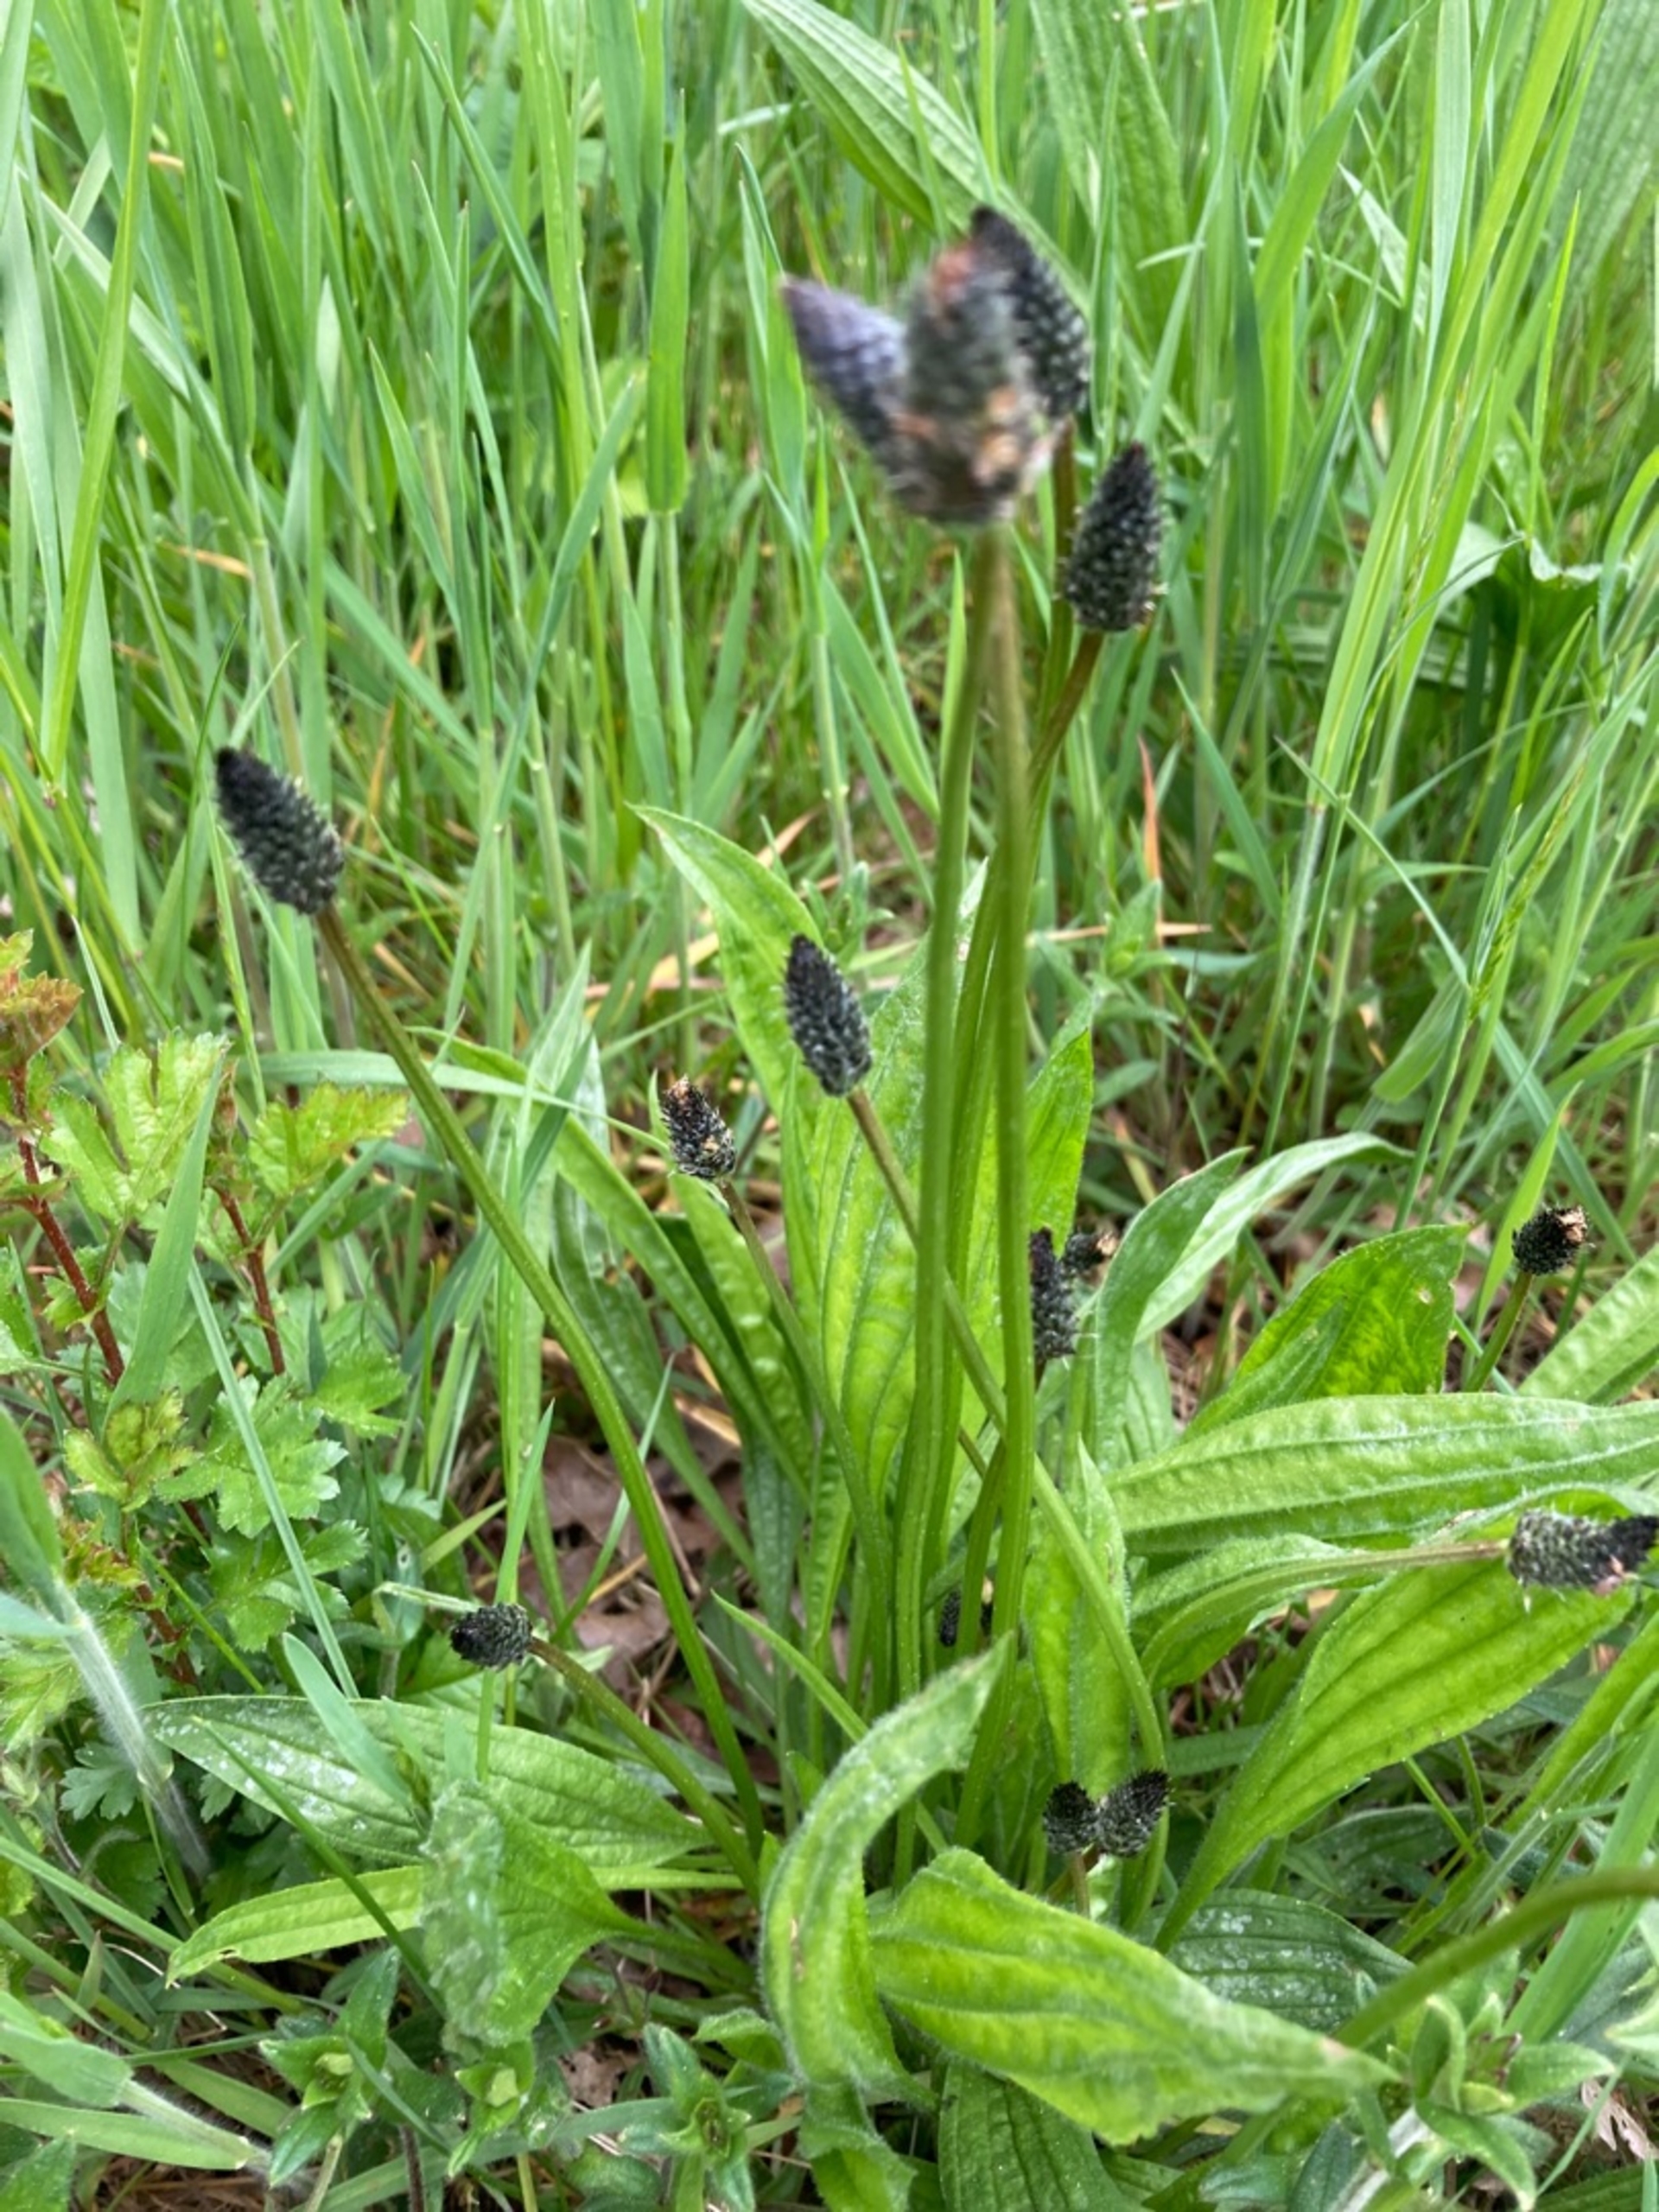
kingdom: Plantae
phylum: Tracheophyta
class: Magnoliopsida
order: Lamiales
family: Plantaginaceae
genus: Plantago
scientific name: Plantago lanceolata
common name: Lancet-vejbred
